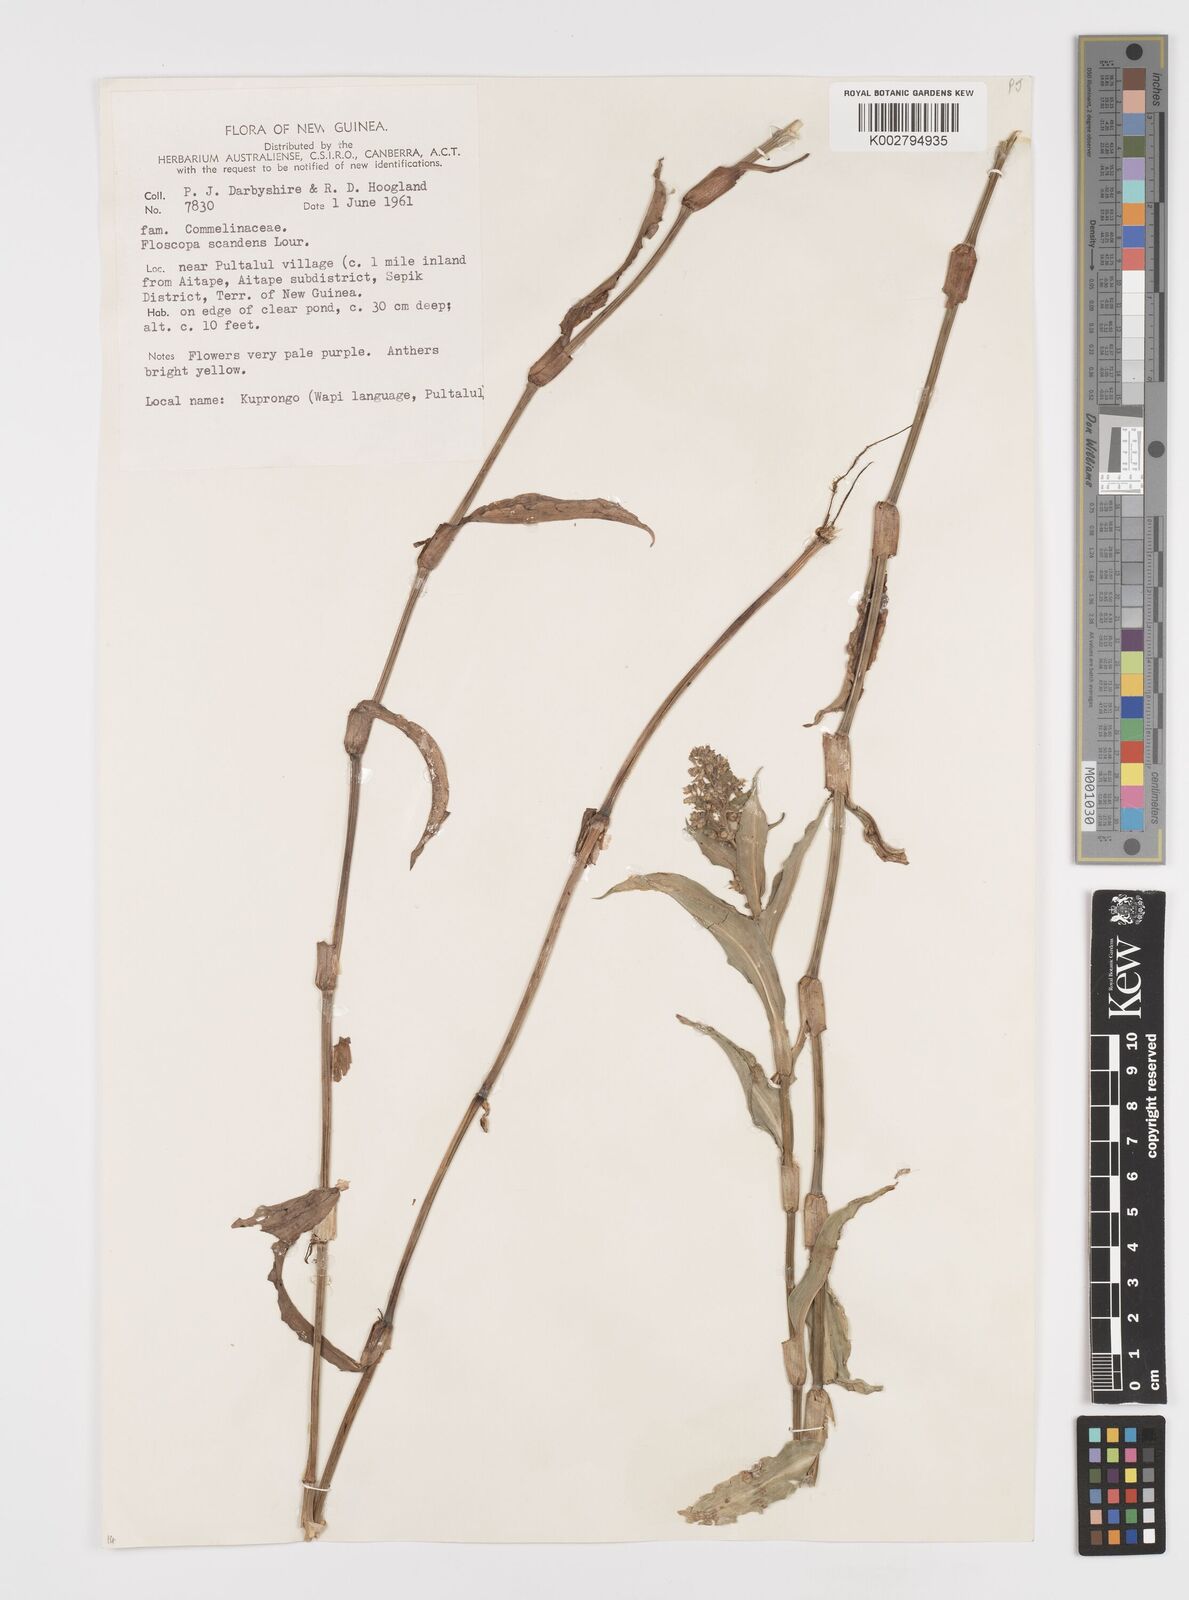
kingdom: Plantae
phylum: Tracheophyta
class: Liliopsida
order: Commelinales
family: Commelinaceae
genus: Floscopa
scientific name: Floscopa scandens
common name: Climbing flower cup
